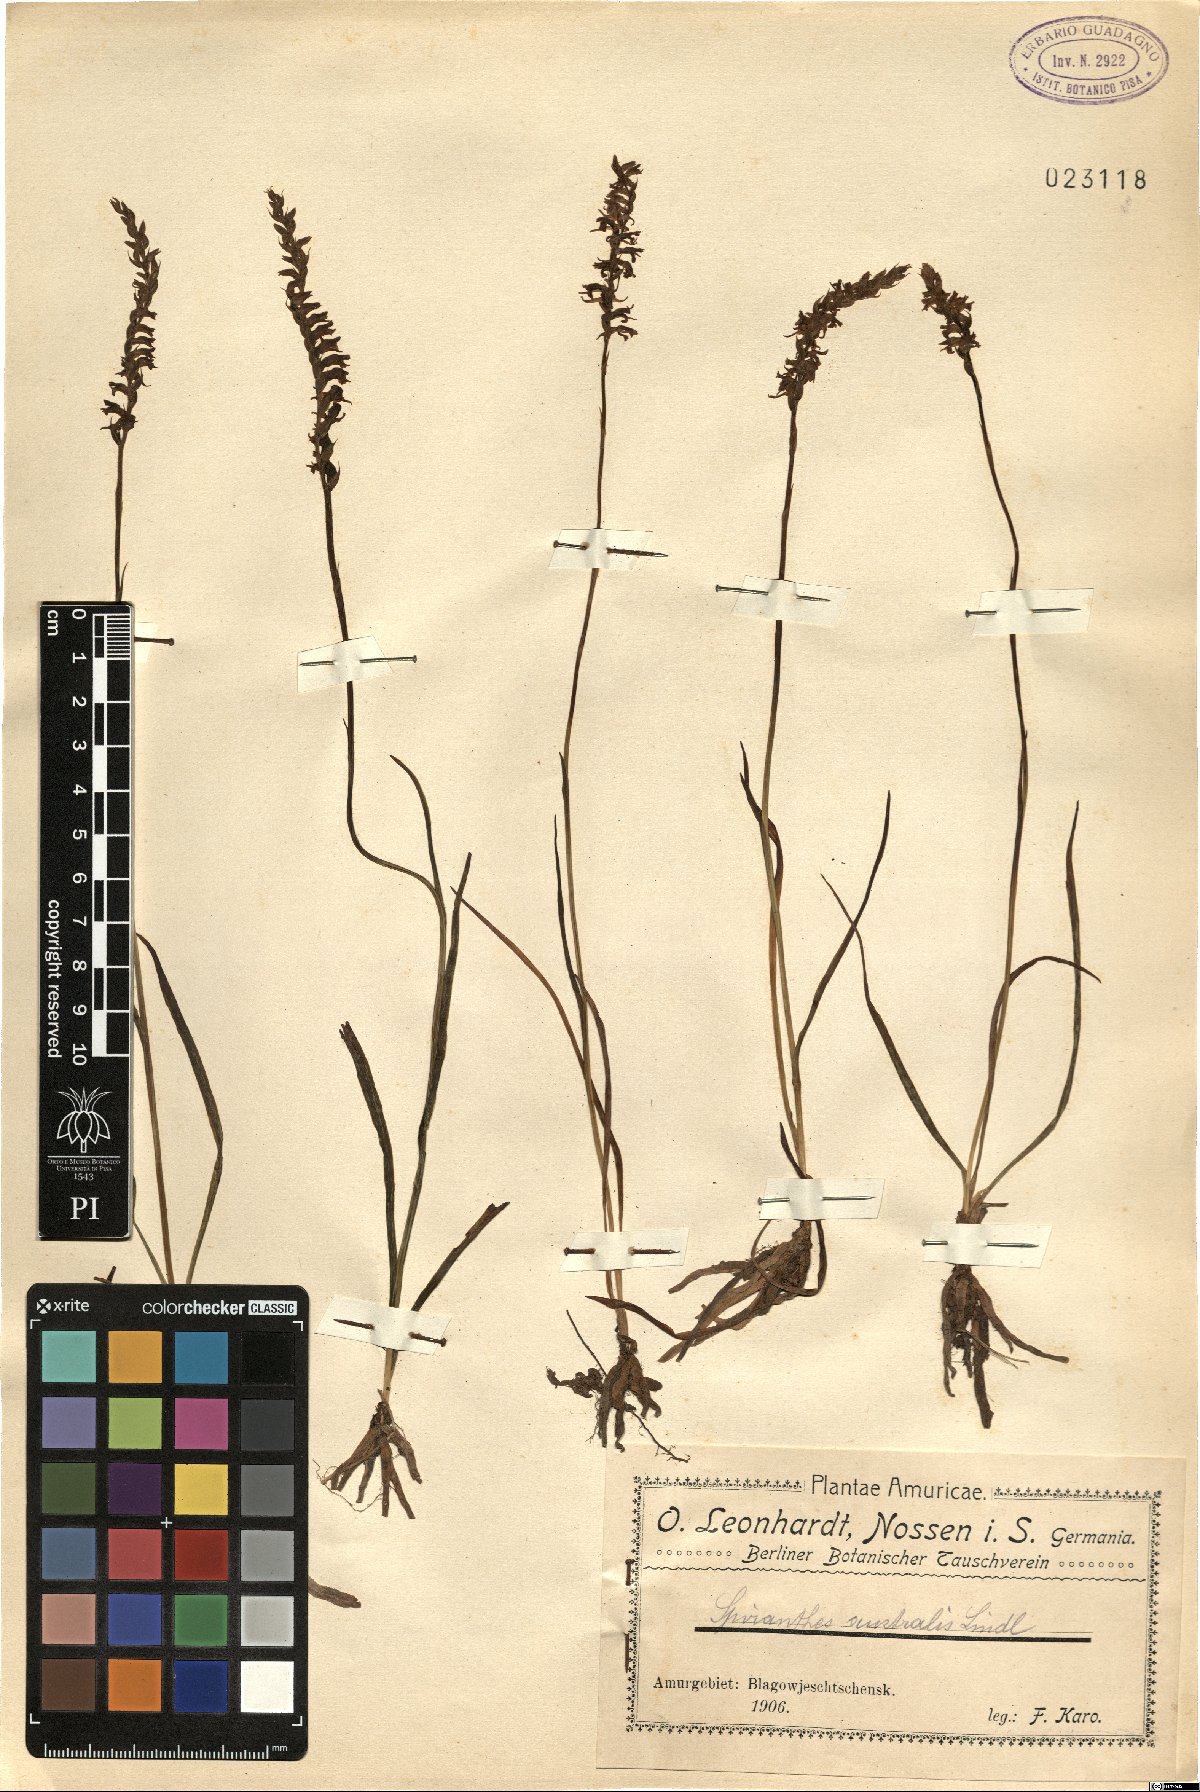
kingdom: Plantae
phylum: Tracheophyta
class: Liliopsida
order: Asparagales
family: Orchidaceae
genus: Spiranthes
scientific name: Spiranthes australis
